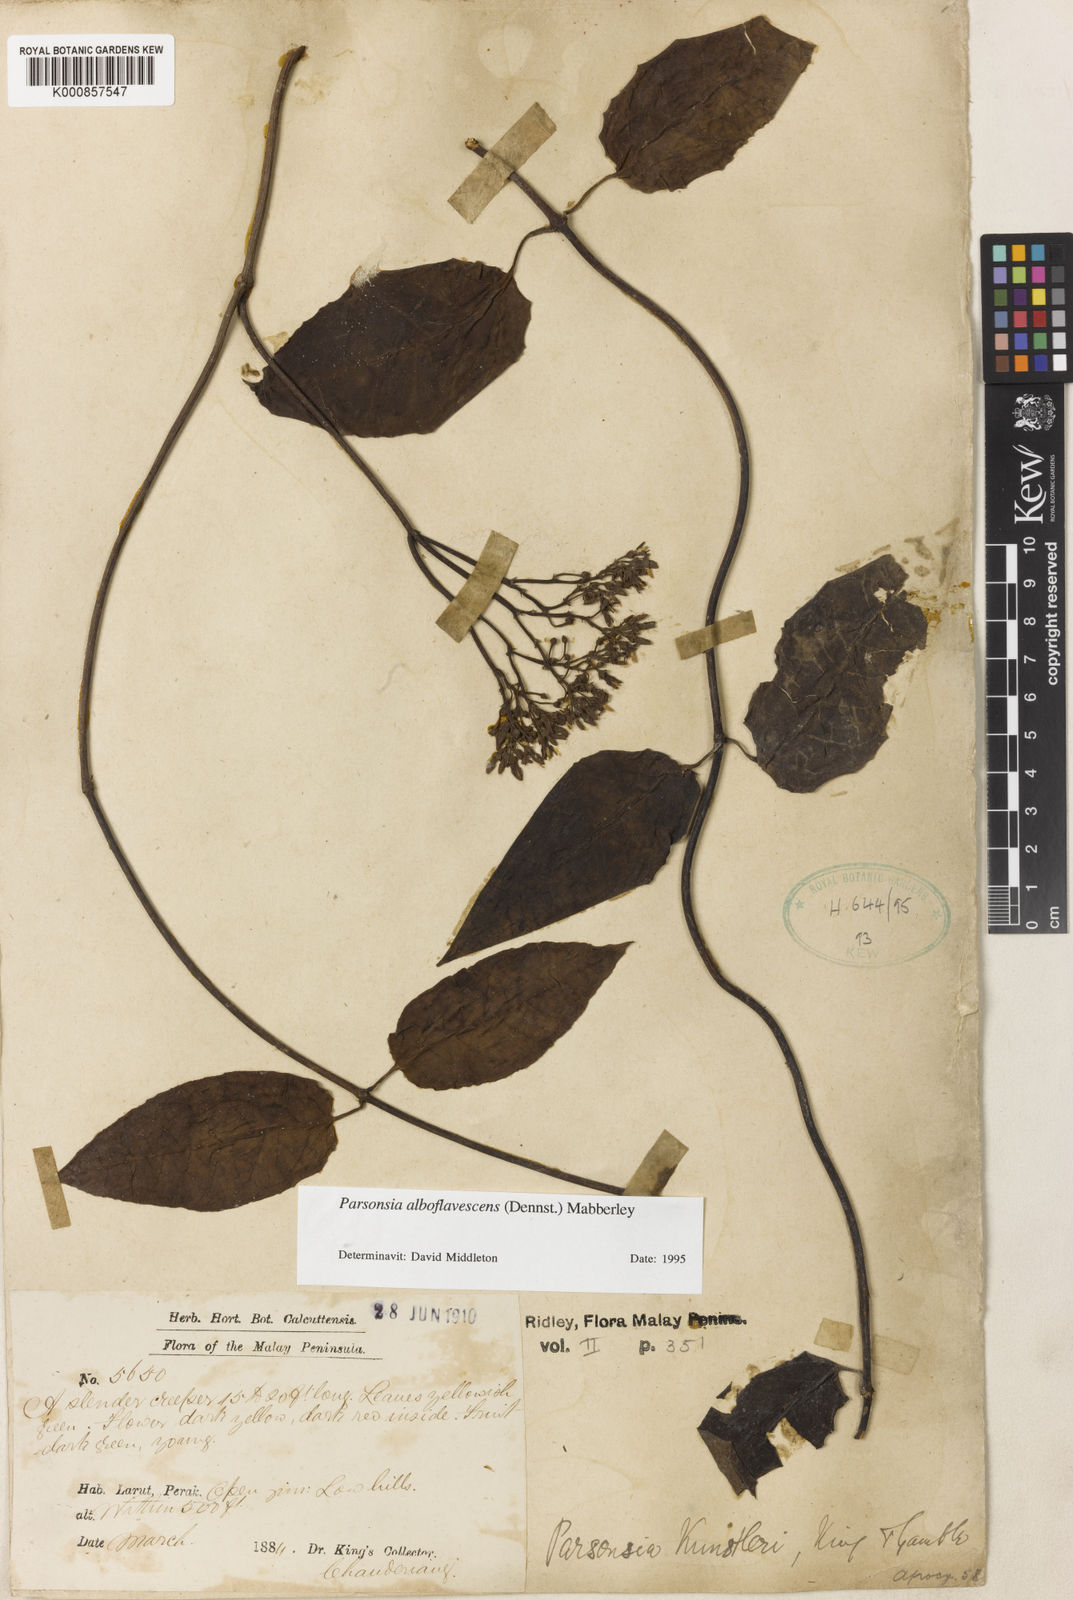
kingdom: Plantae
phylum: Tracheophyta
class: Magnoliopsida
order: Gentianales
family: Apocynaceae
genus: Parsonsia
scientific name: Parsonsia alboflavescens
